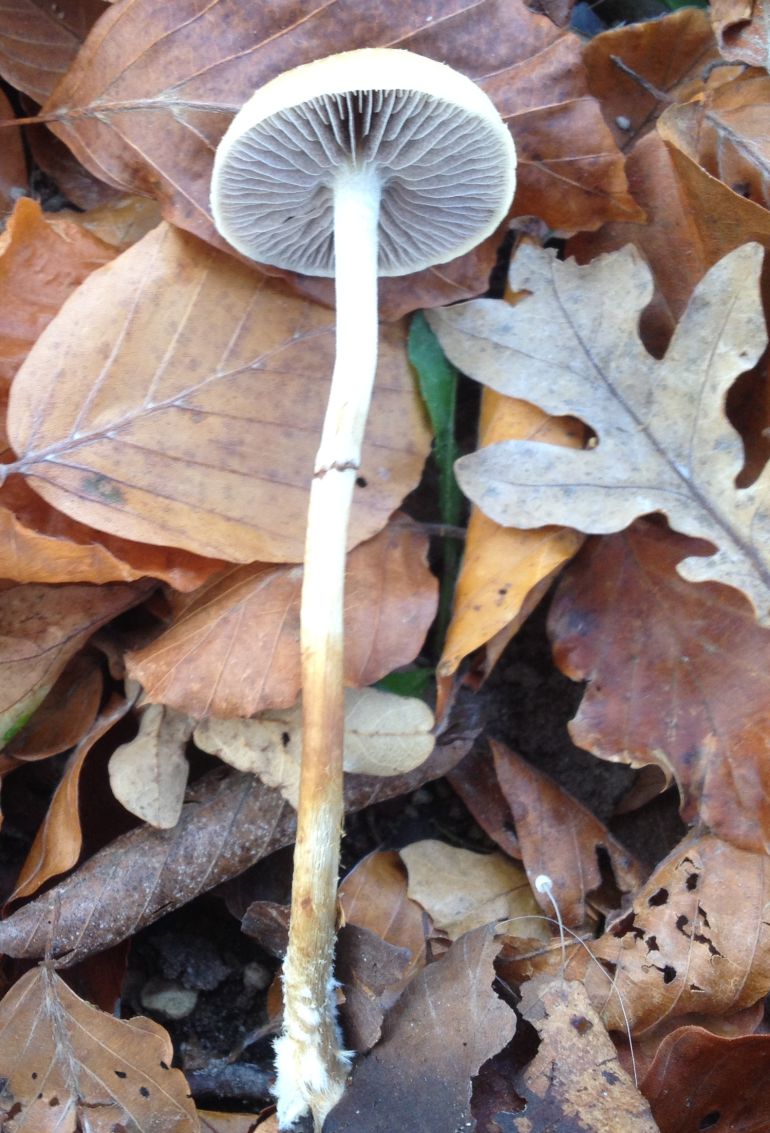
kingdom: Fungi
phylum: Basidiomycota
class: Agaricomycetes
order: Agaricales
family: Strophariaceae
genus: Leratiomyces
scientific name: Leratiomyces squamosus
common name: skællet bredblad
